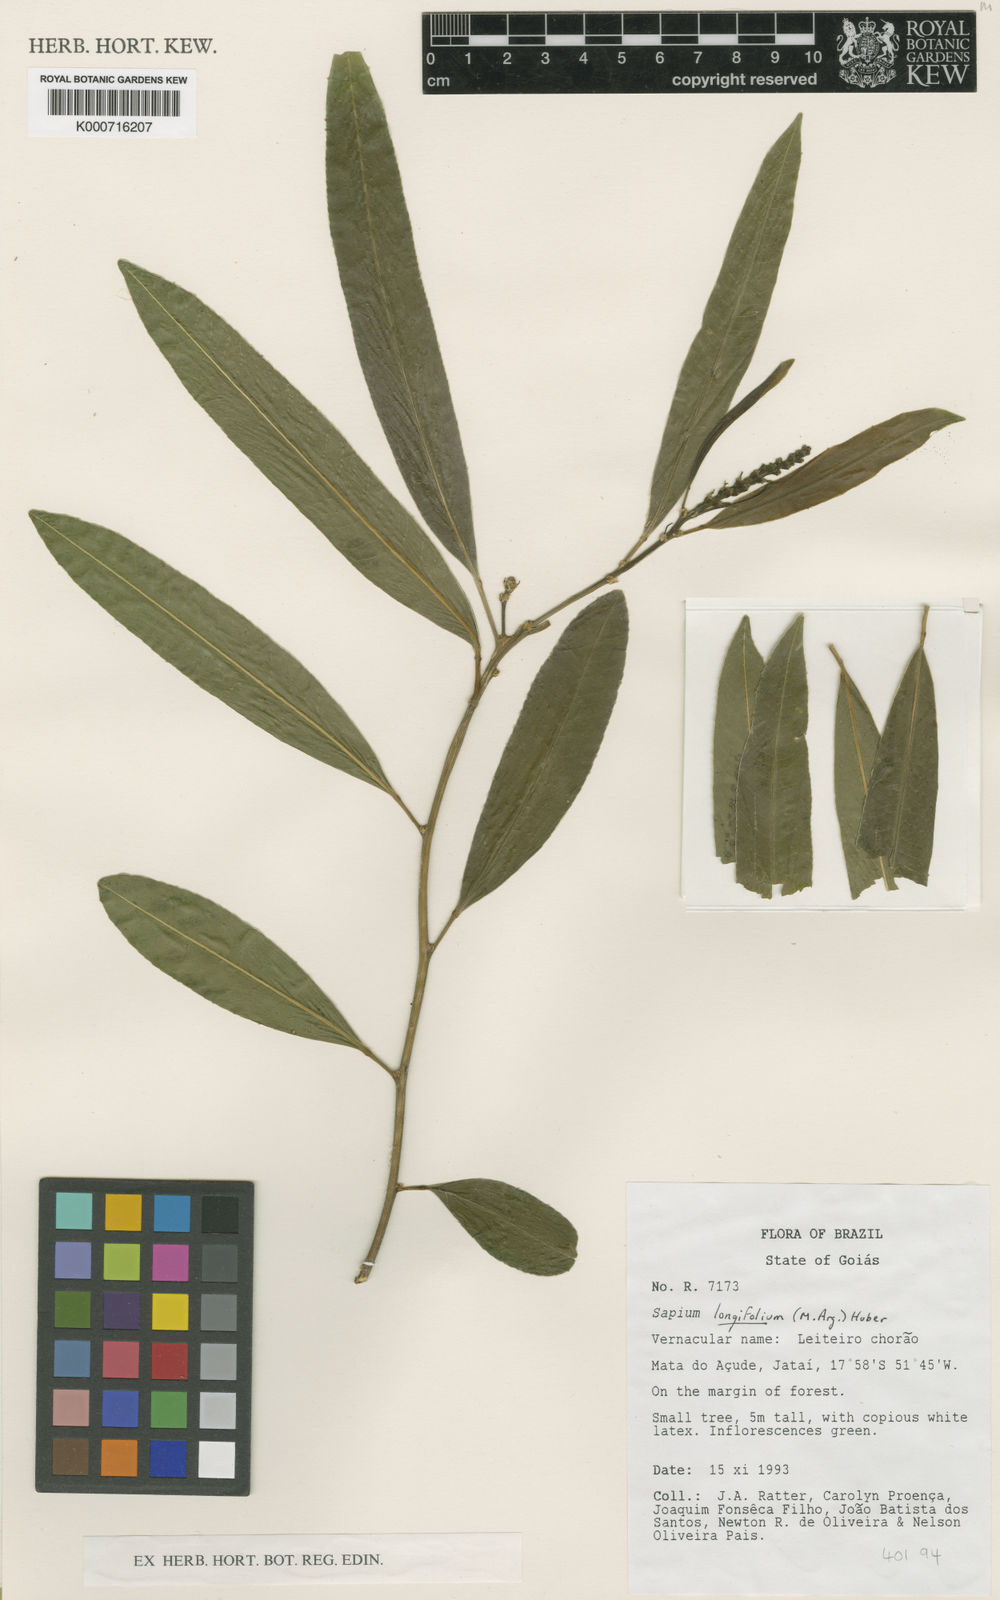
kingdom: Plantae
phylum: Tracheophyta
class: Magnoliopsida
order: Malpighiales
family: Euphorbiaceae
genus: Sapium
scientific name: Sapium
